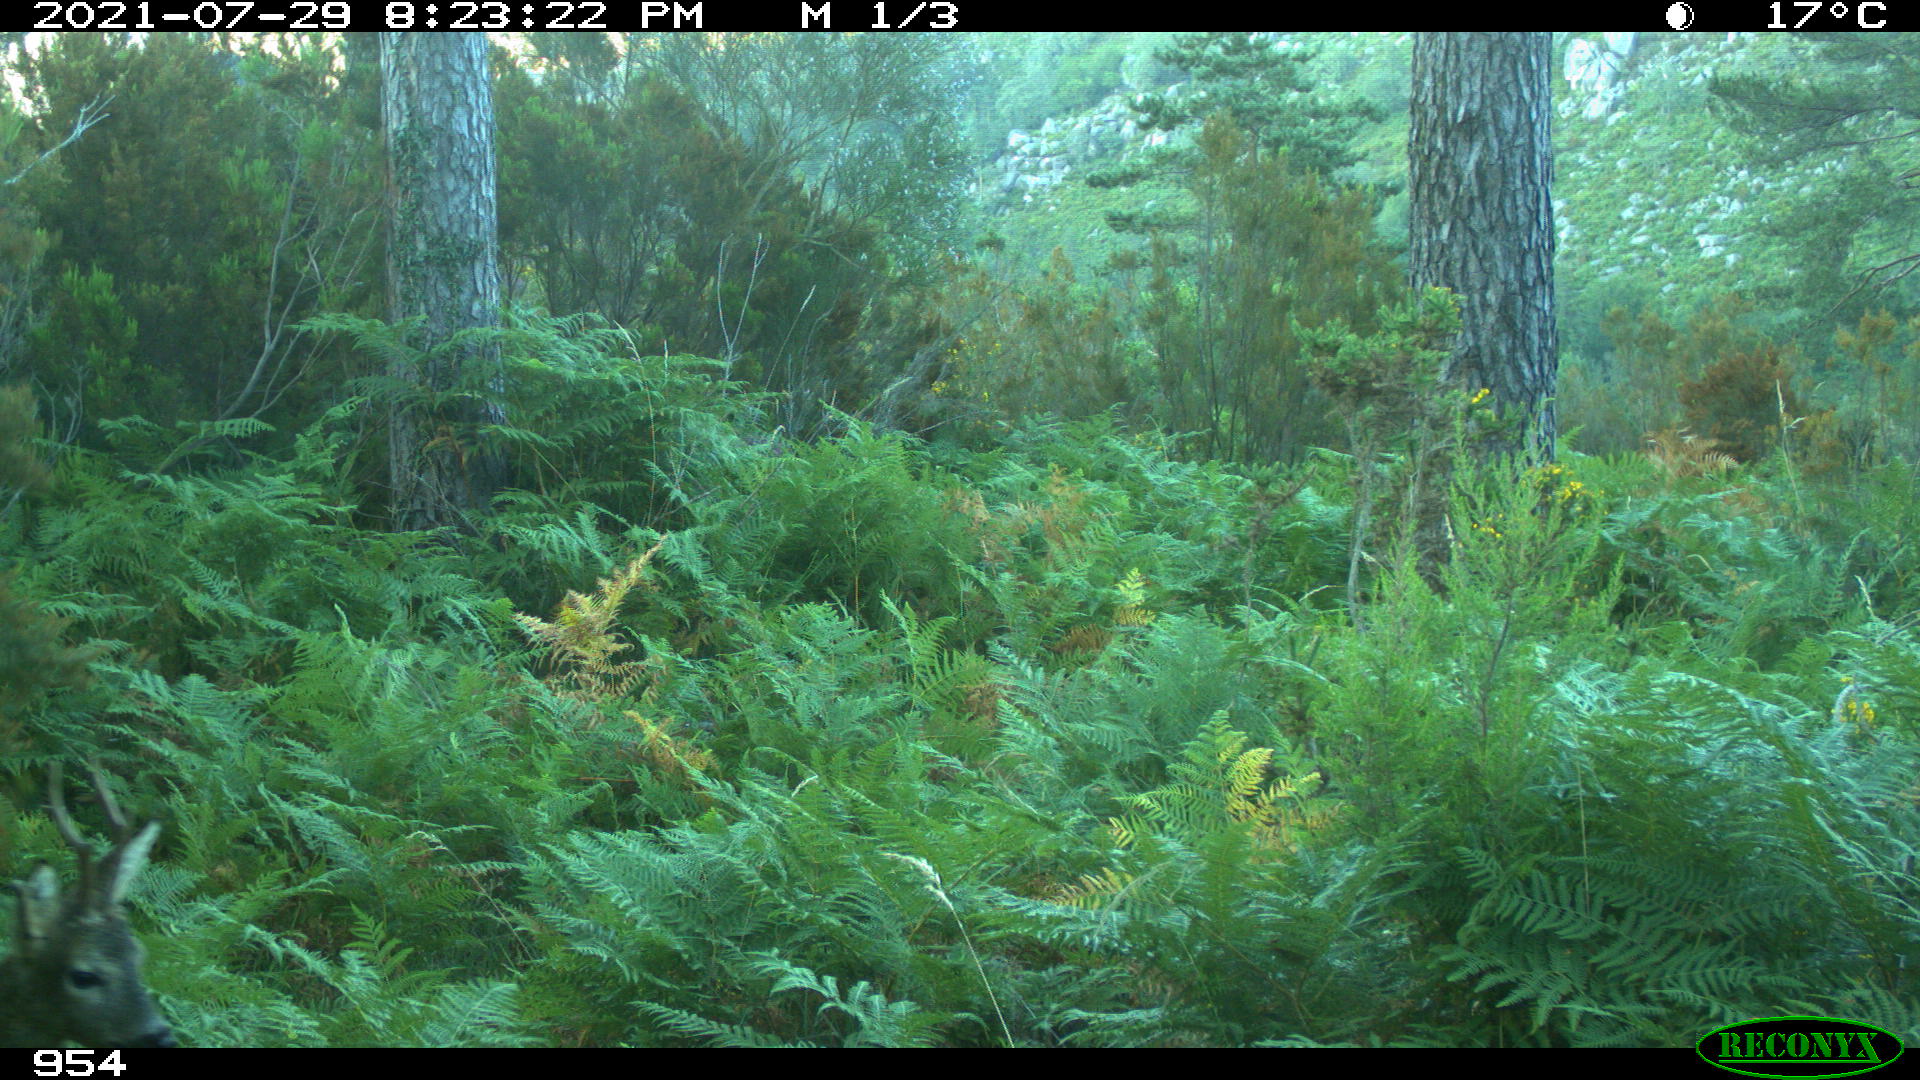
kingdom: Animalia
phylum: Chordata
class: Mammalia
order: Artiodactyla
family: Cervidae
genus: Capreolus
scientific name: Capreolus capreolus
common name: Western roe deer
